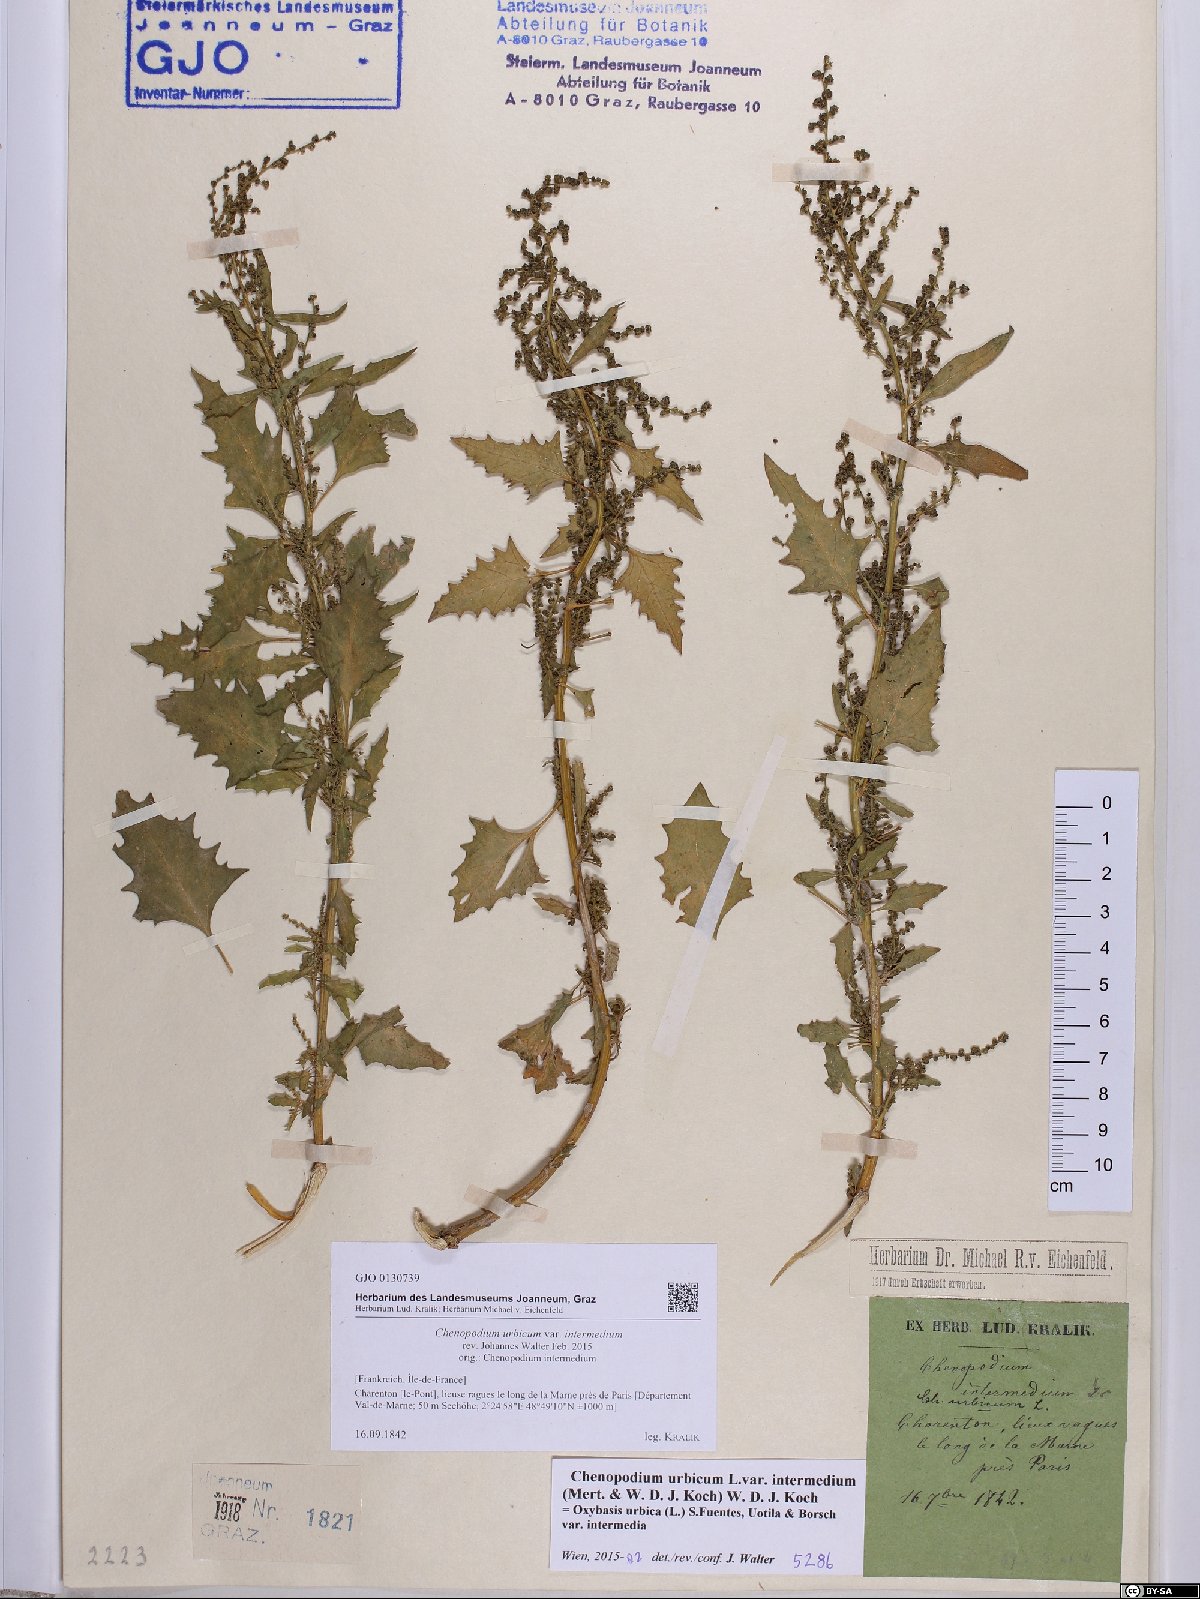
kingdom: Plantae
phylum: Tracheophyta
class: Magnoliopsida
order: Caryophyllales
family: Amaranthaceae
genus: Oxybasis
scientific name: Oxybasis rhombifolia
